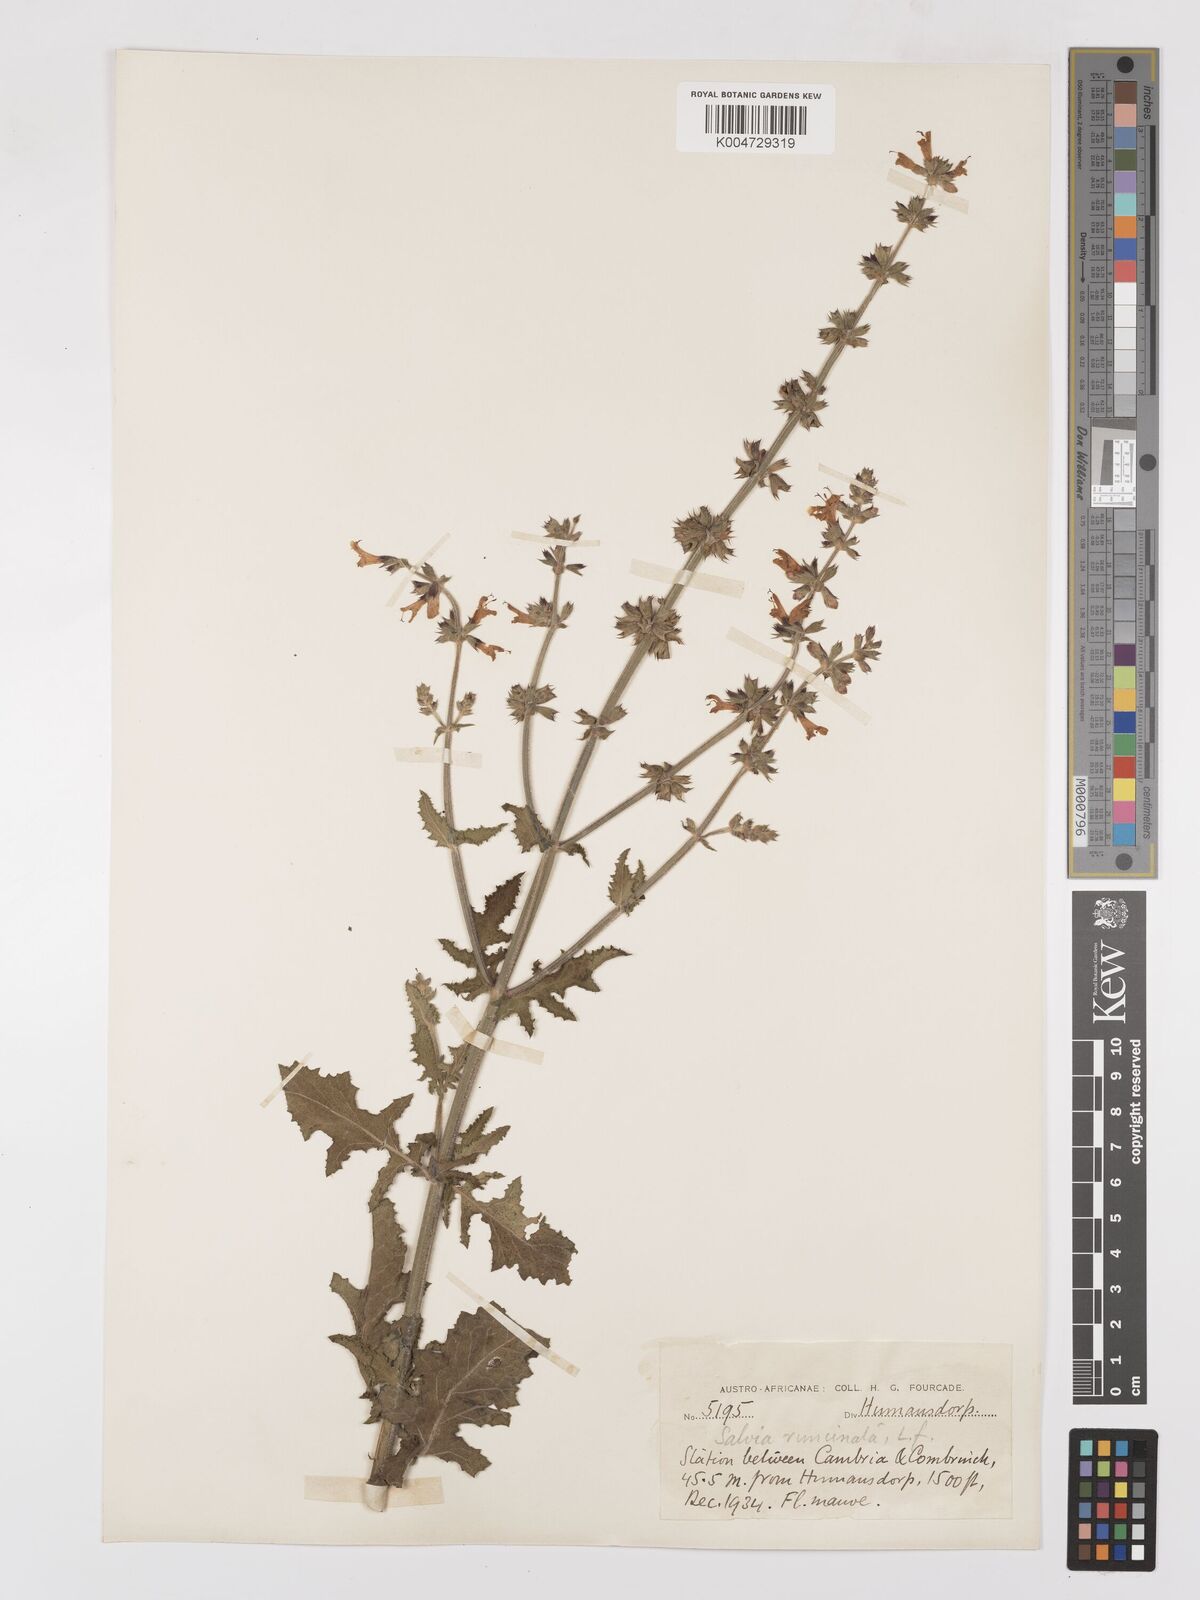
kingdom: Plantae
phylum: Tracheophyta
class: Magnoliopsida
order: Lamiales
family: Lamiaceae
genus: Salvia
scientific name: Salvia runcinata
